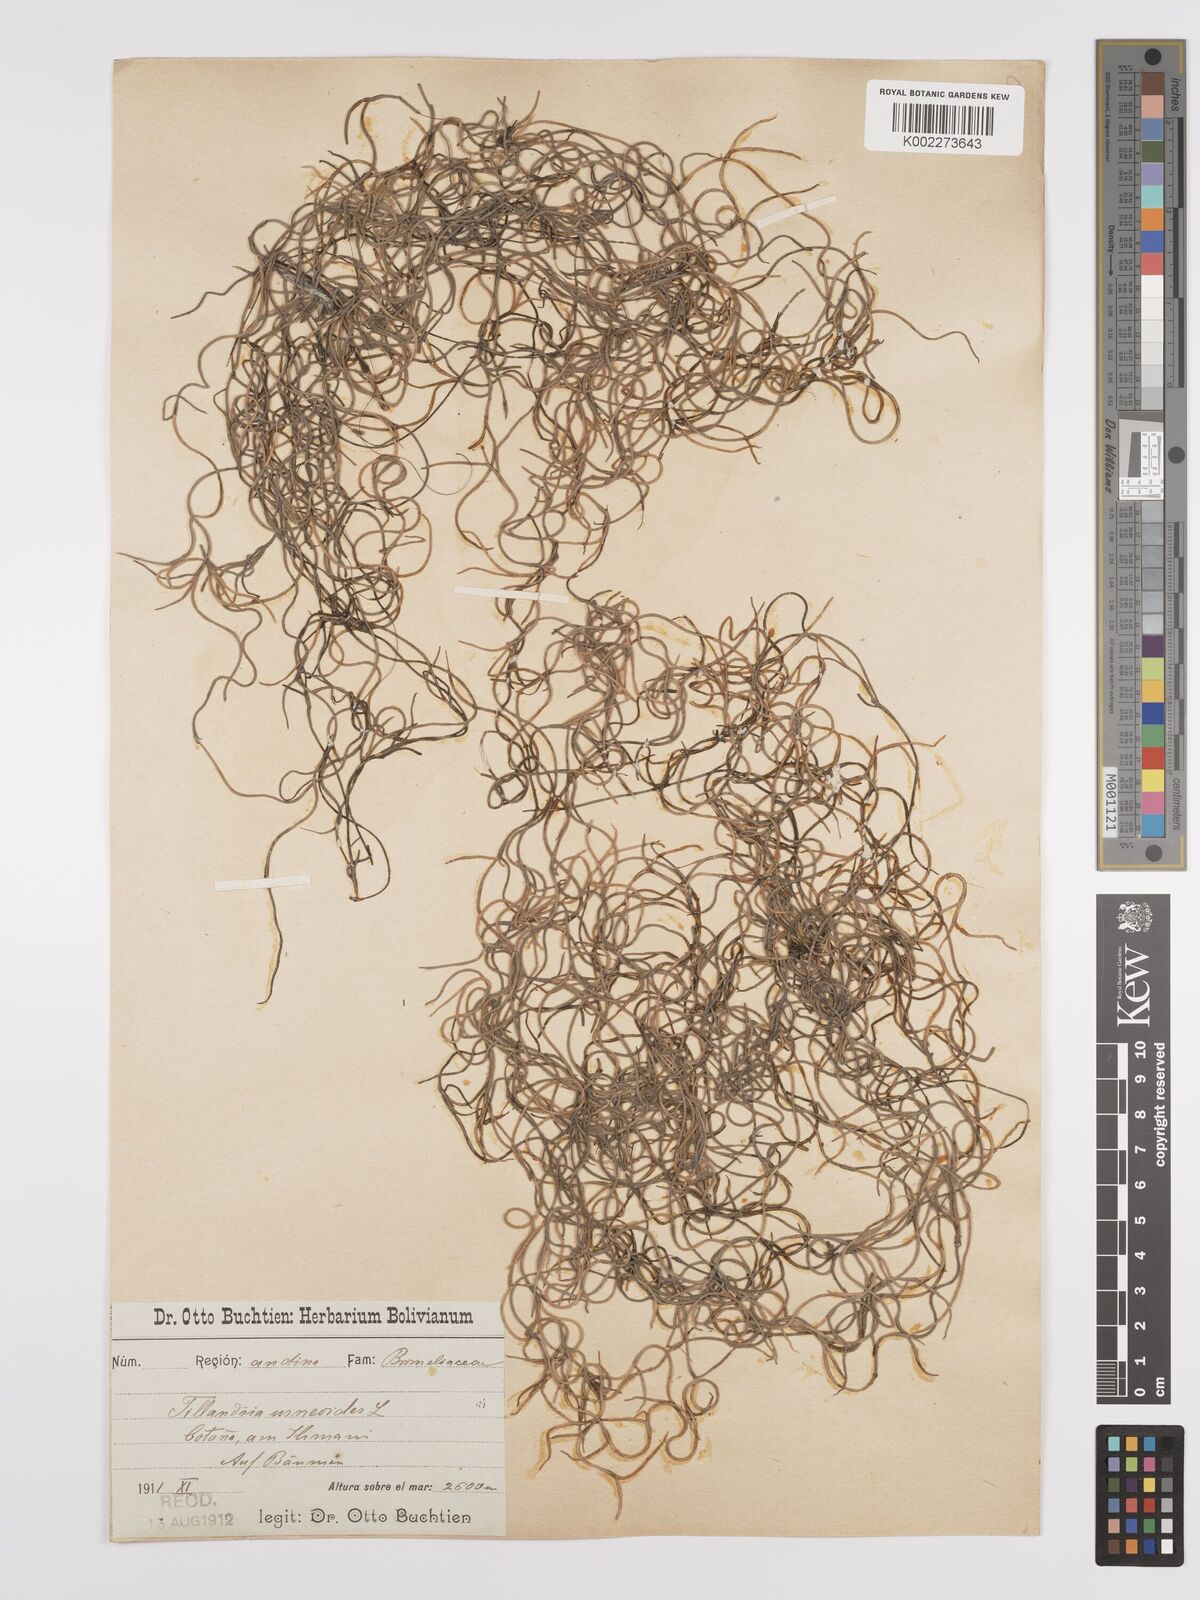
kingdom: Plantae
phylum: Tracheophyta
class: Liliopsida
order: Poales
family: Bromeliaceae
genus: Tillandsia
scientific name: Tillandsia usneoides
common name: Spanish moss
